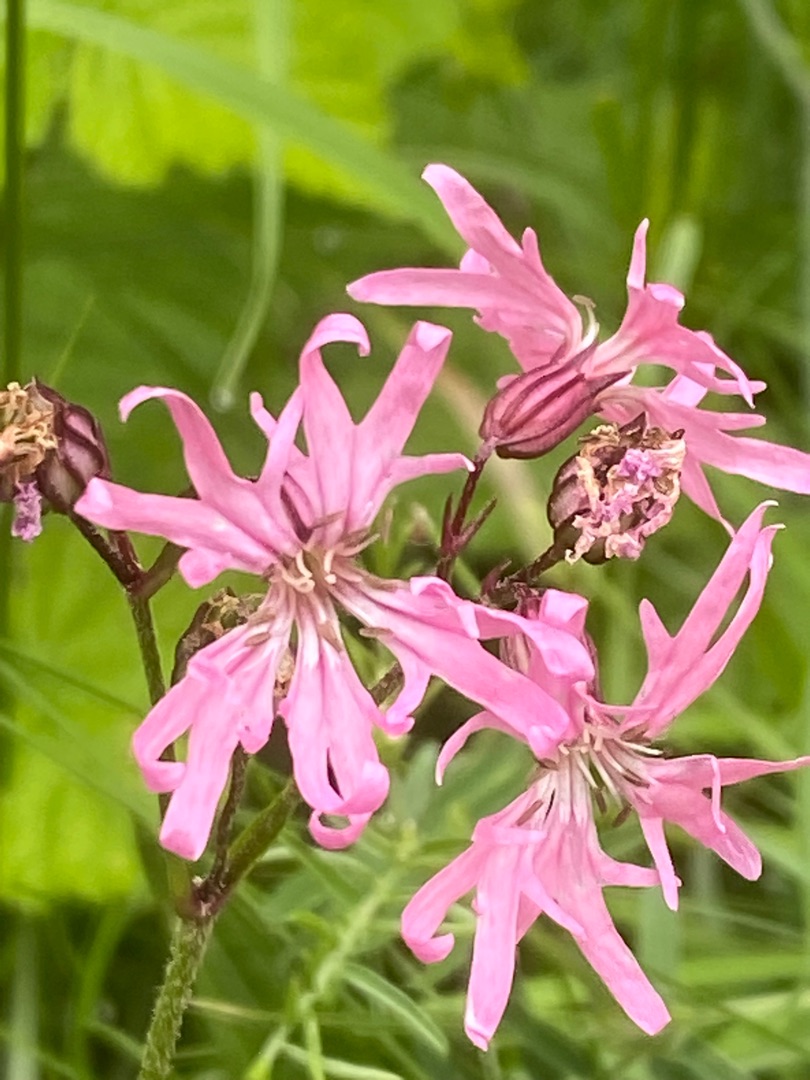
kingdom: Plantae
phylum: Tracheophyta
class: Magnoliopsida
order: Caryophyllales
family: Caryophyllaceae
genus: Silene
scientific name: Silene flos-cuculi
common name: Trævlekrone
